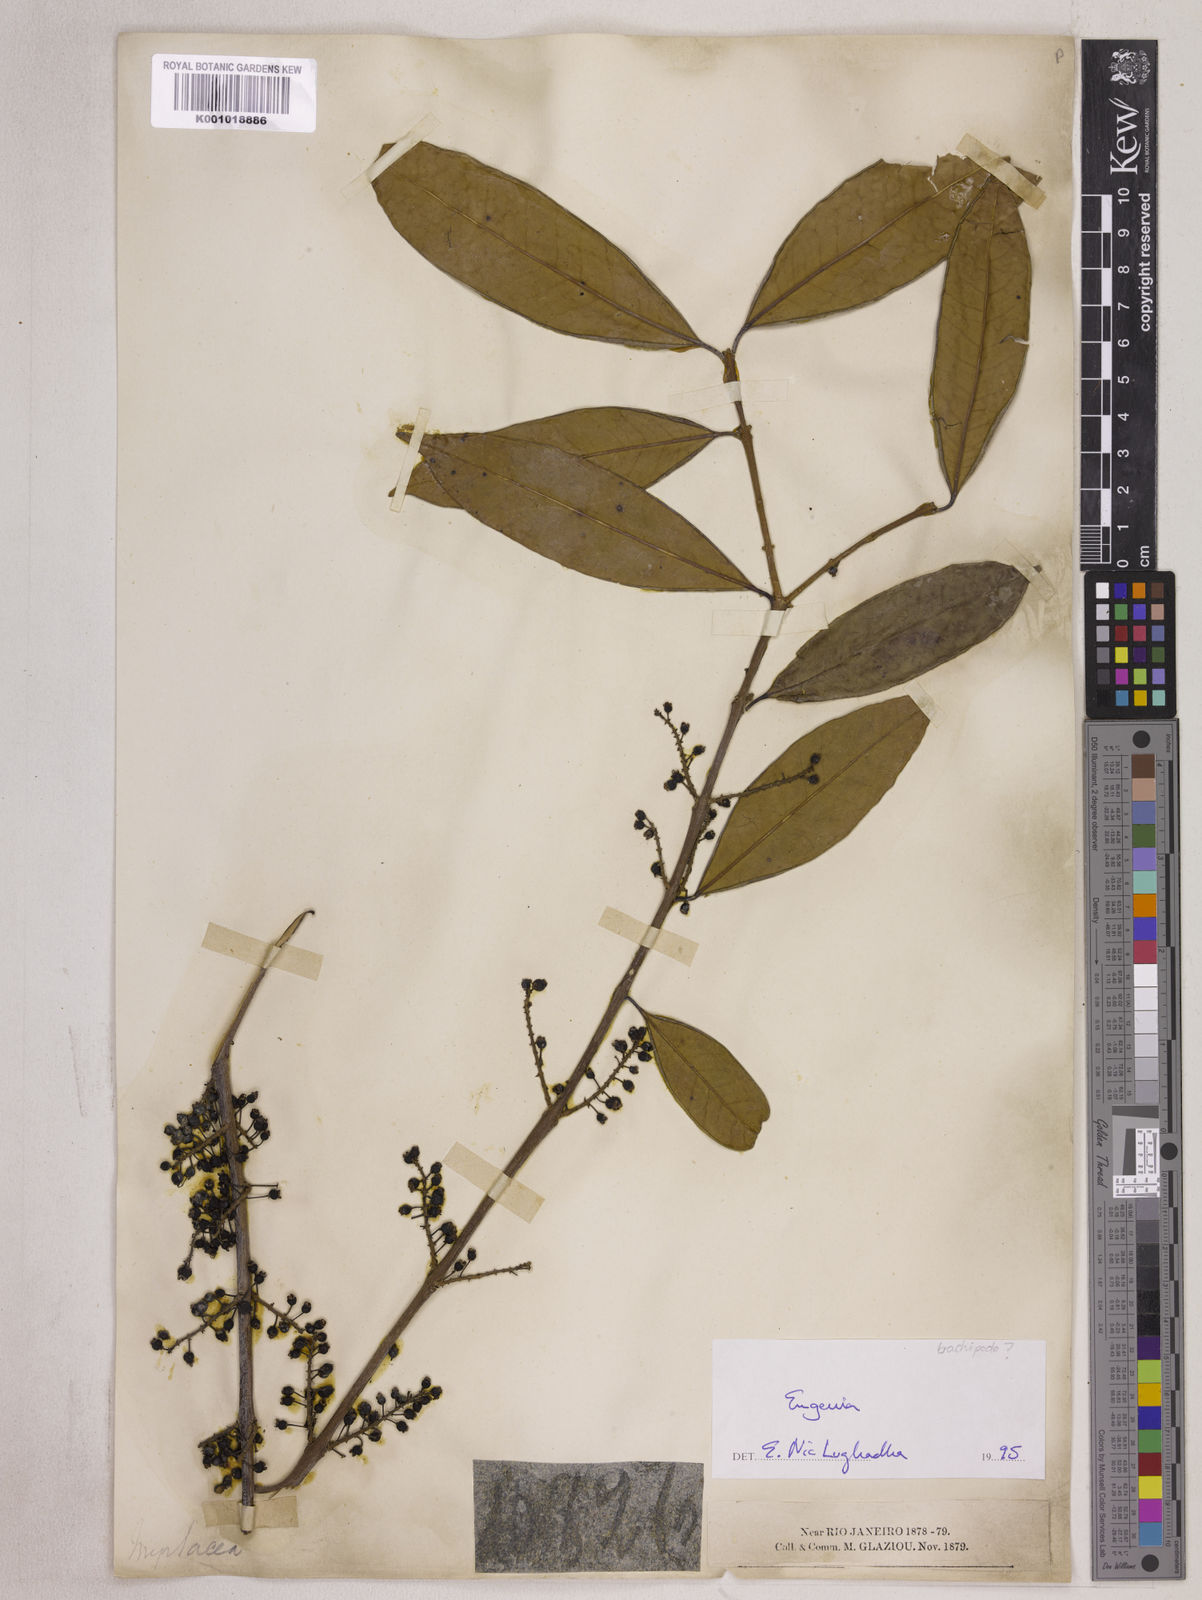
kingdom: Plantae
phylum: Tracheophyta
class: Magnoliopsida
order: Myrtales
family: Myrtaceae
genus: Eugenia
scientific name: Eugenia densiracemosa
